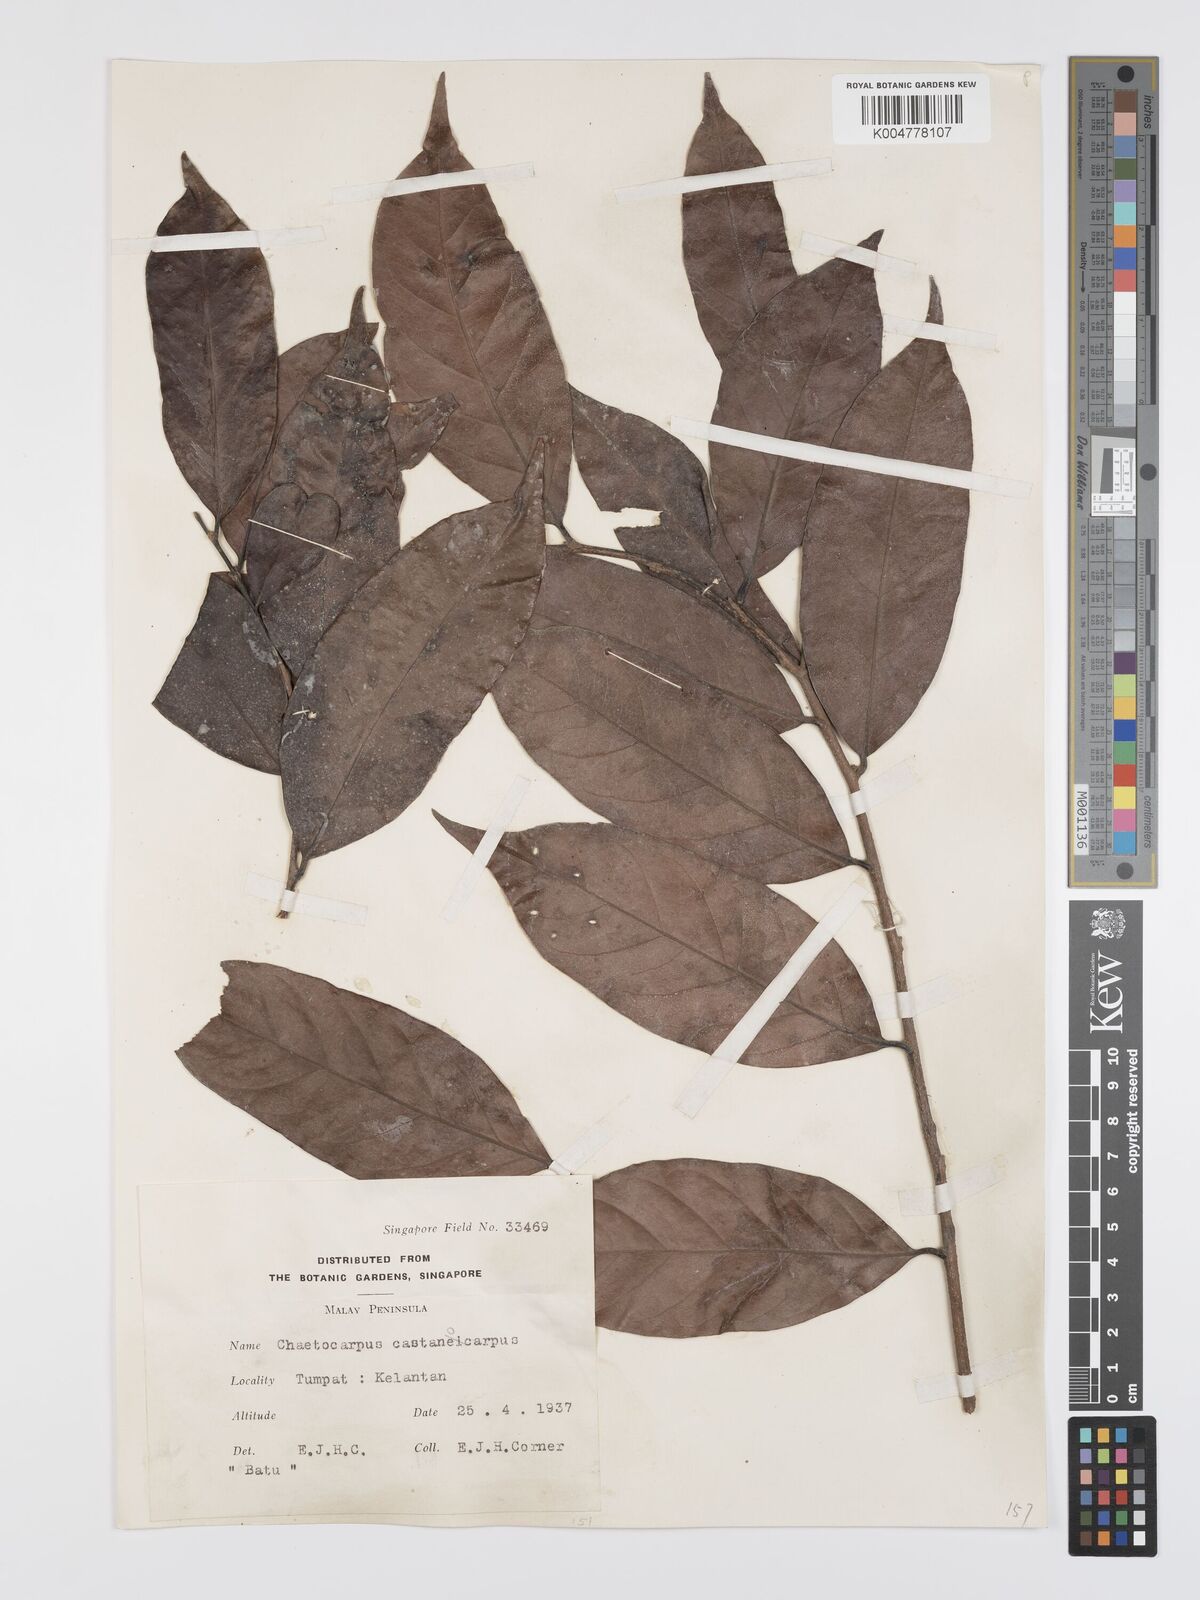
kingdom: Plantae
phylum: Tracheophyta
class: Magnoliopsida
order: Malpighiales
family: Peraceae
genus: Chaetocarpus
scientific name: Chaetocarpus castanocarpus
